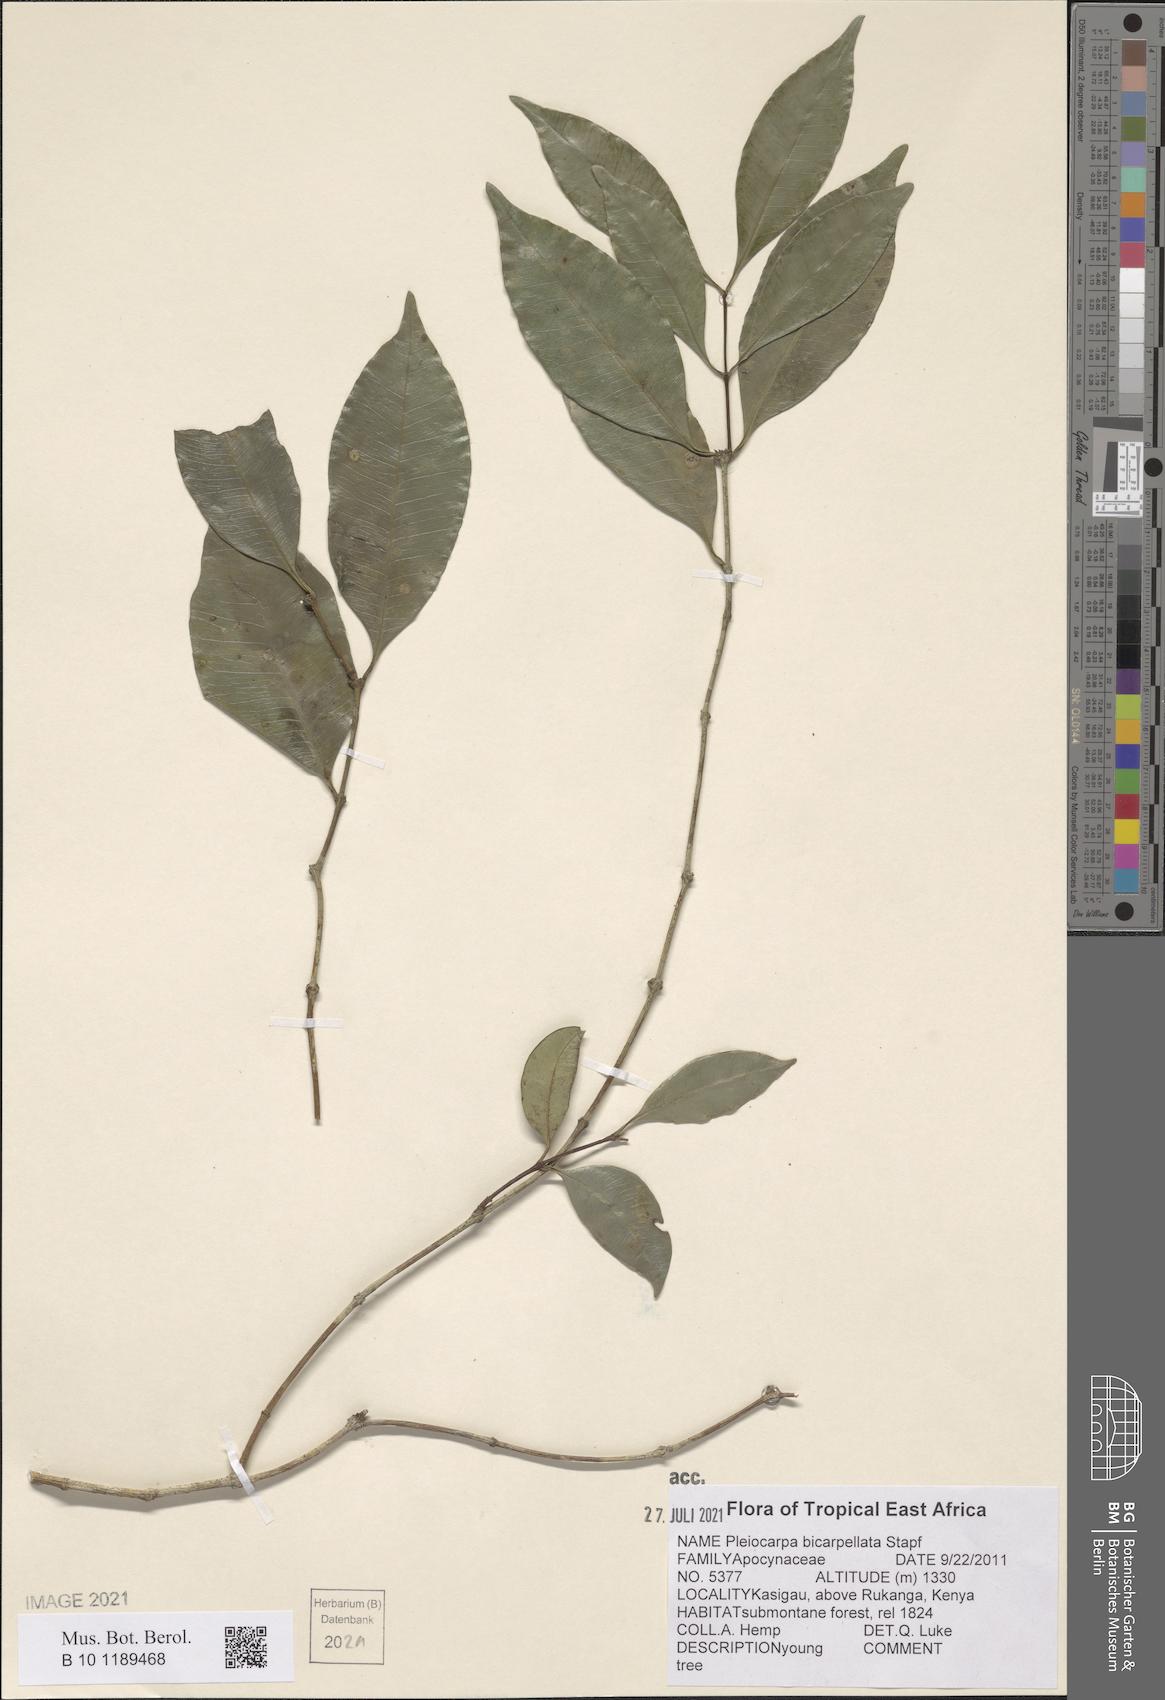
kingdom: Plantae
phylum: Tracheophyta
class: Magnoliopsida
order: Gentianales
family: Apocynaceae
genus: Pleiocarpa
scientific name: Pleiocarpa bicarpellata
